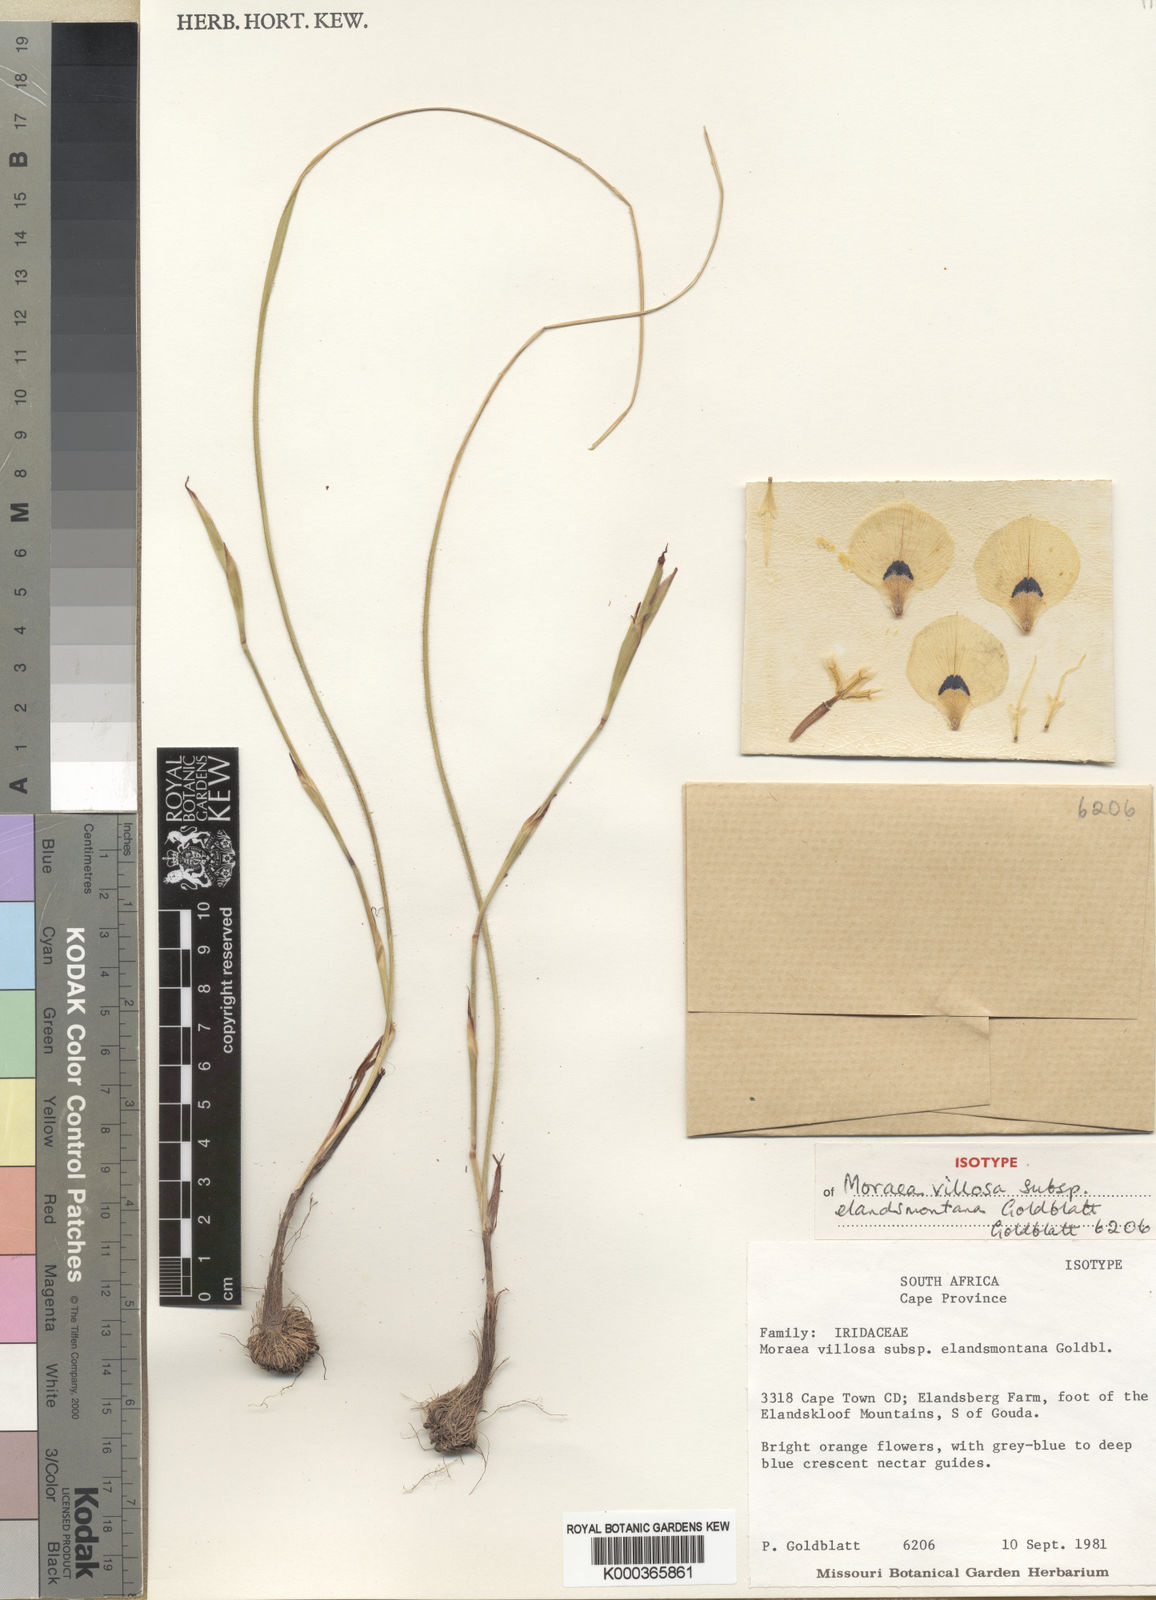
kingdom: Plantae
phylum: Tracheophyta
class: Liliopsida
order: Asparagales
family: Iridaceae
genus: Moraea
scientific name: Moraea villosa
